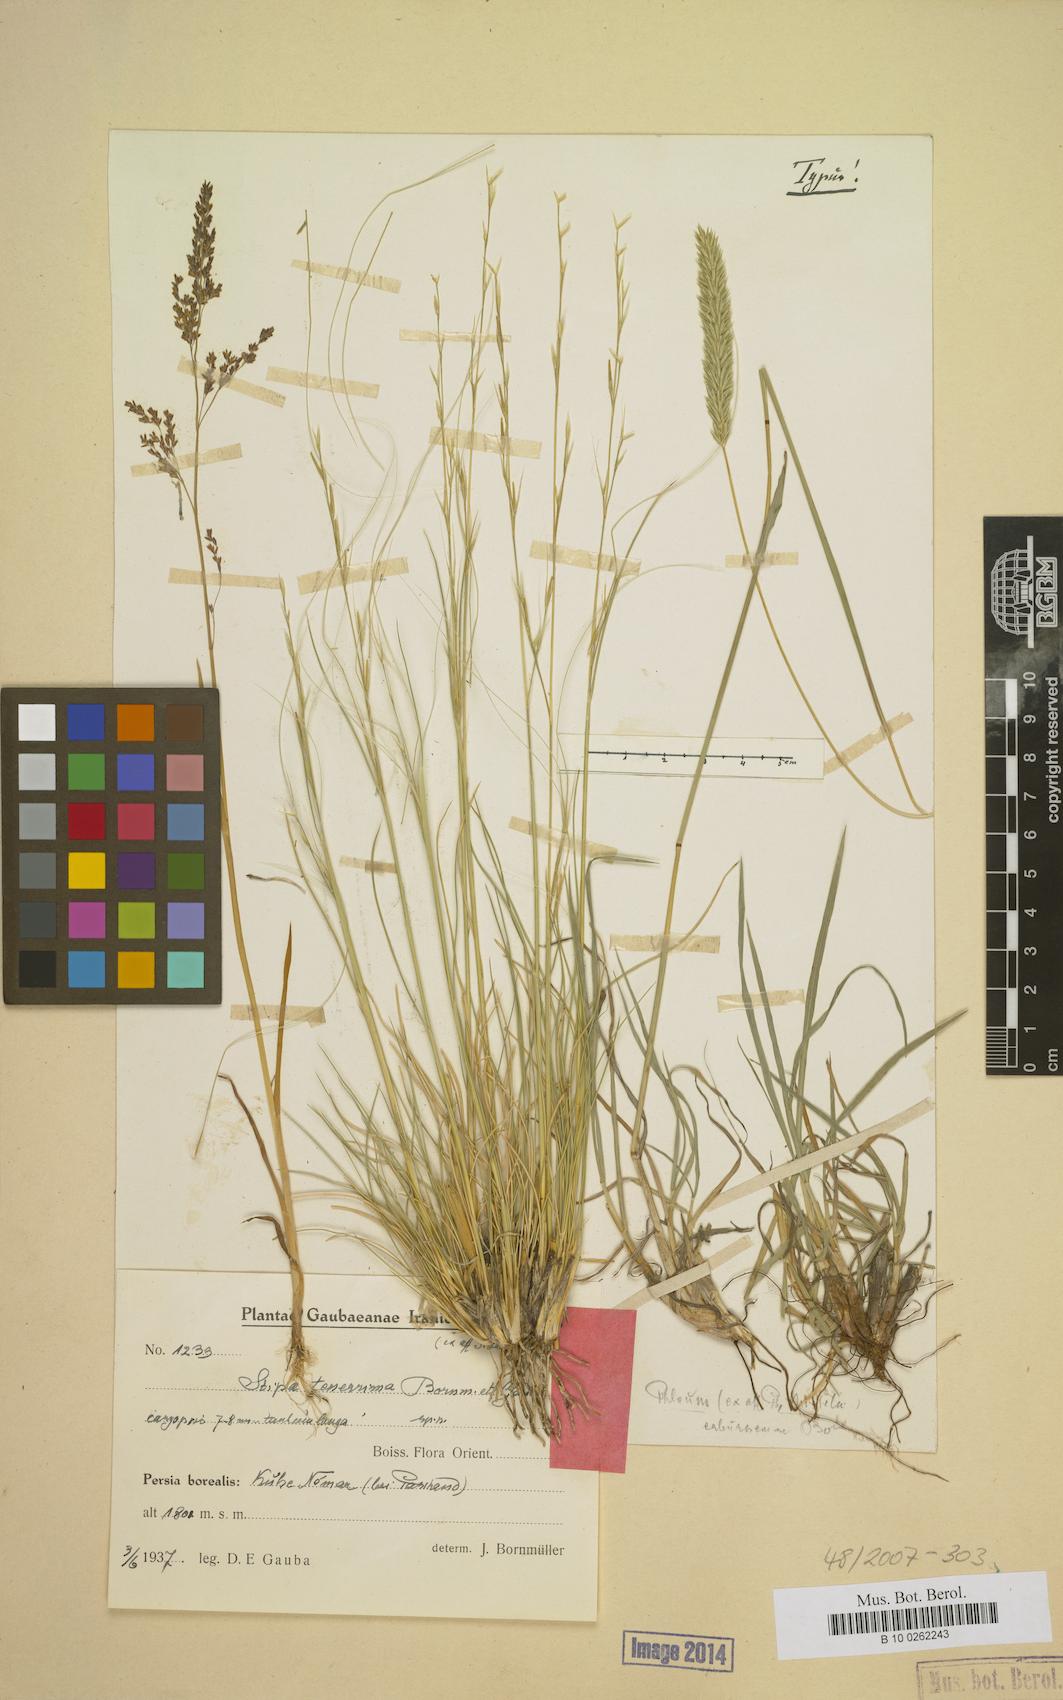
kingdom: Plantae
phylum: Tracheophyta
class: Liliopsida
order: Poales
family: Poaceae
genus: Stipa
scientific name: Stipa tenerrima
